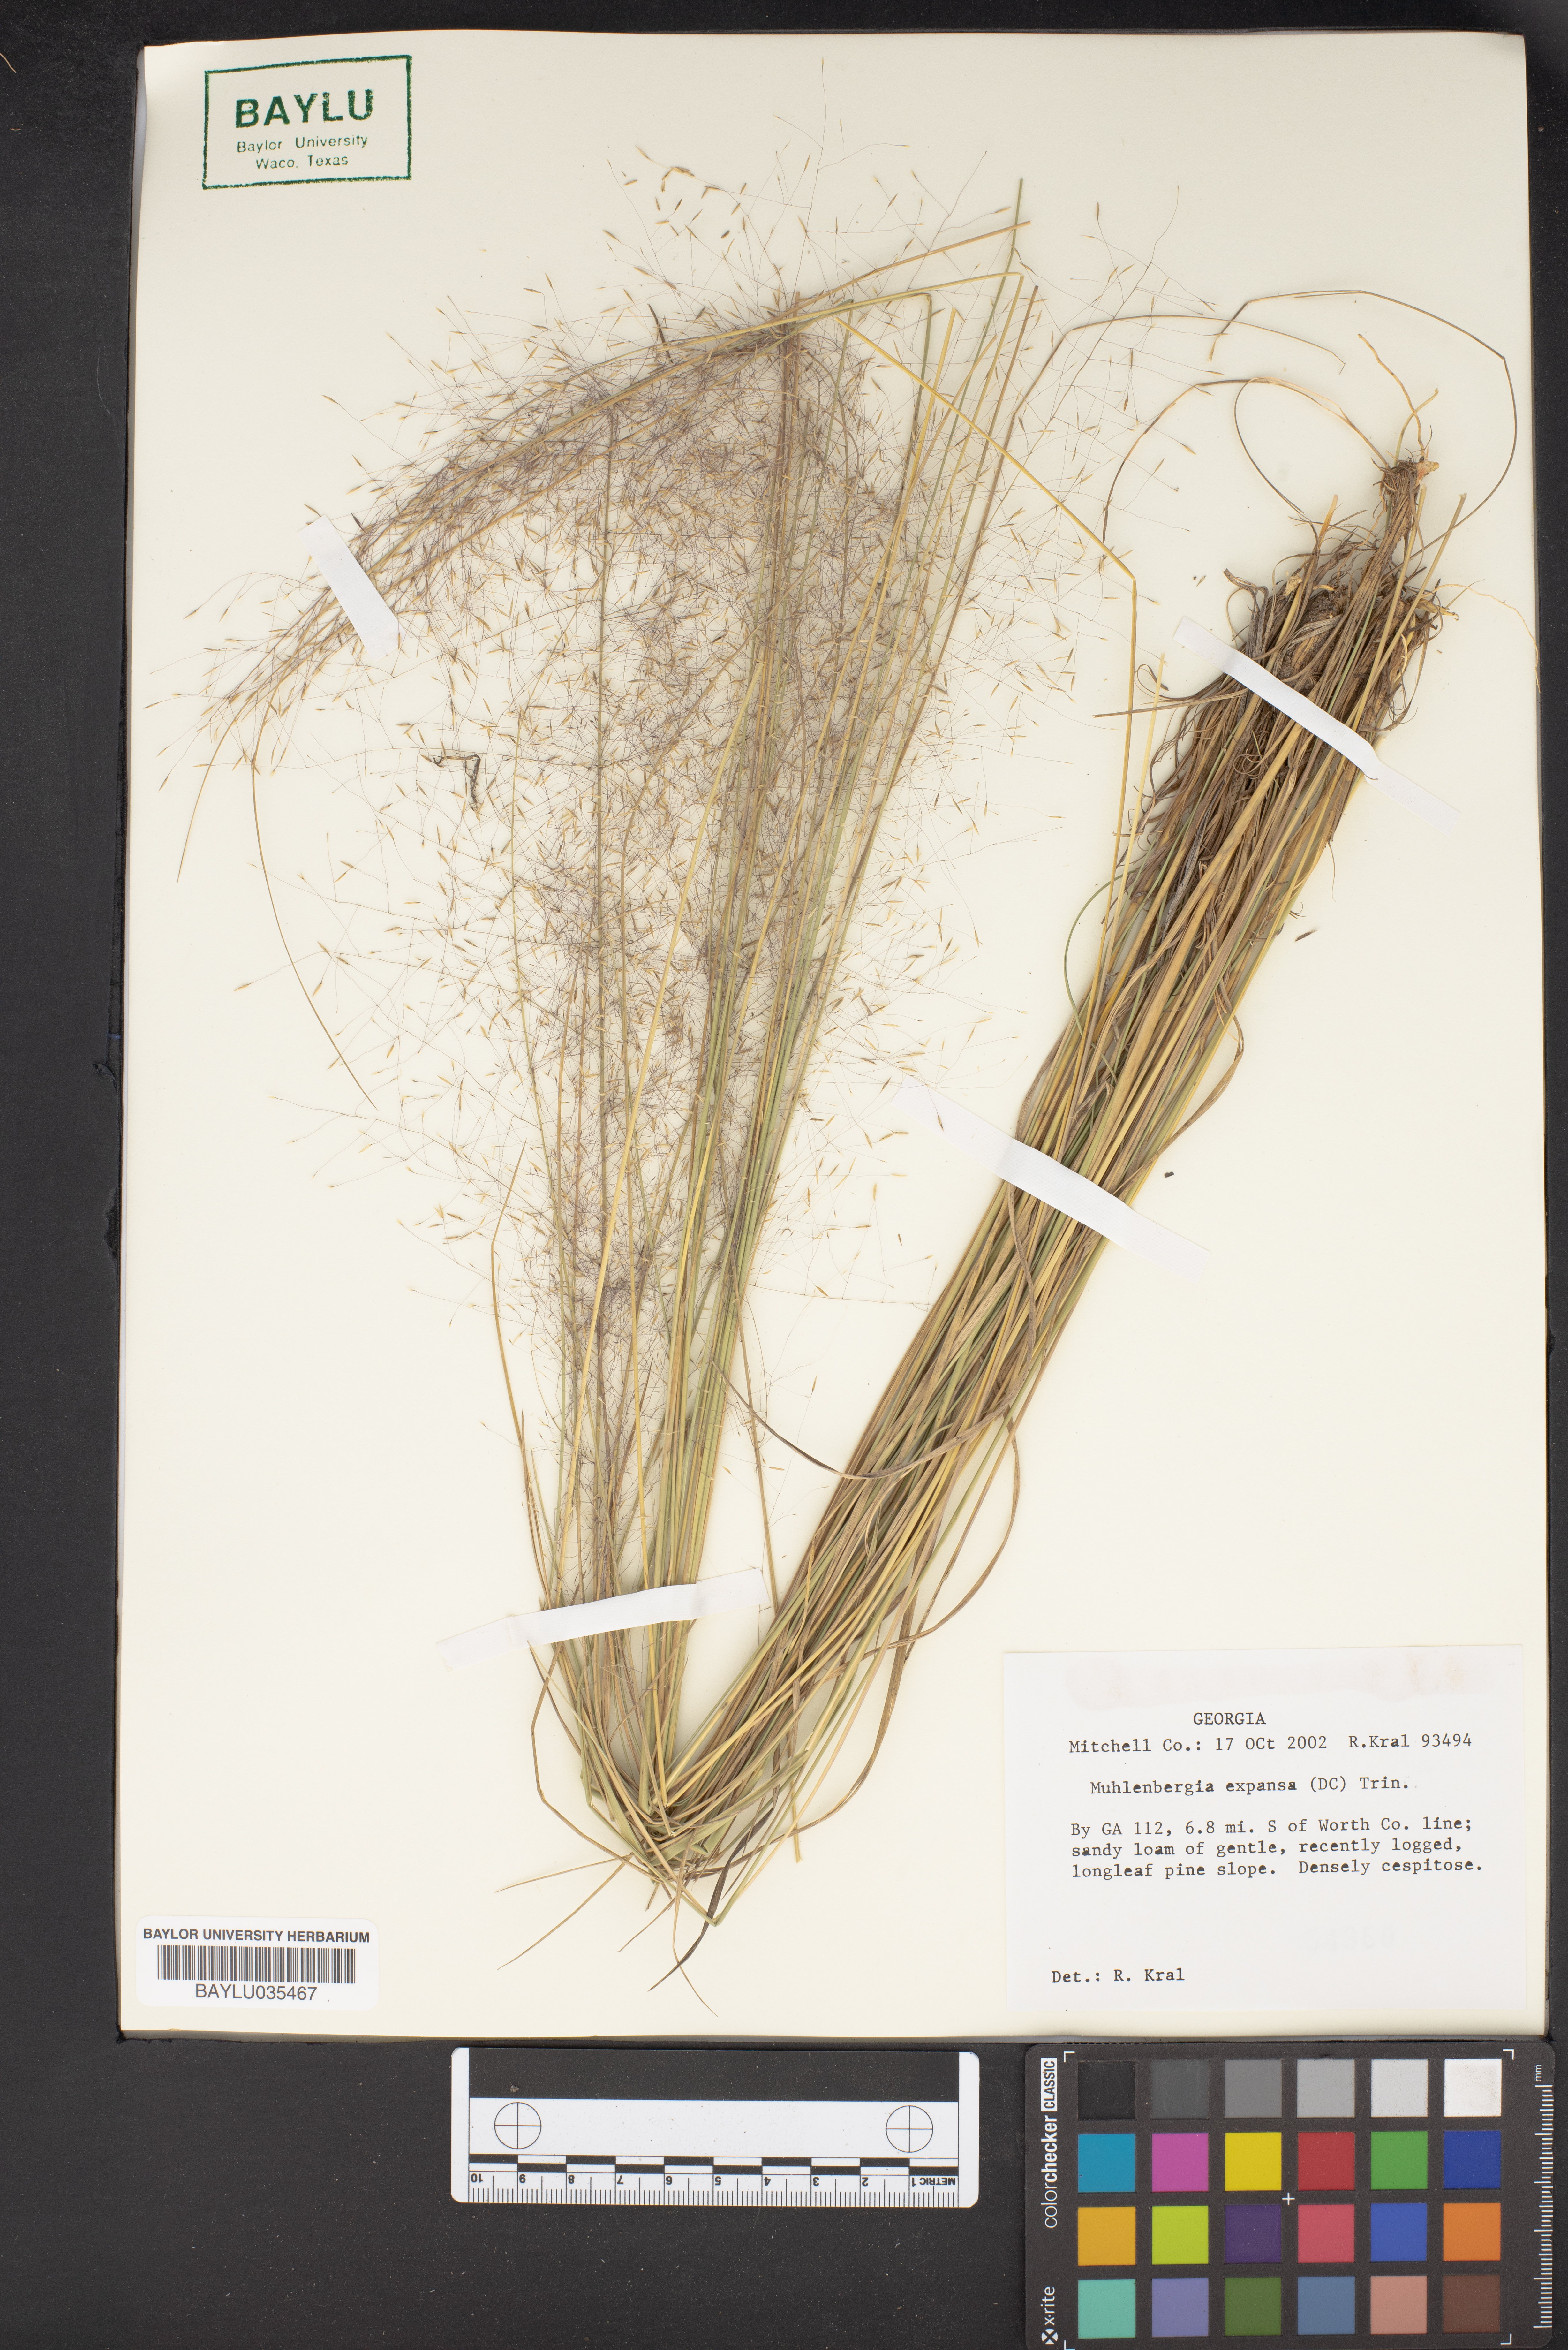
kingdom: Plantae
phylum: Tracheophyta
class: Liliopsida
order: Poales
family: Poaceae
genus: Muhlenbergia
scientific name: Muhlenbergia expansa
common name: Savannah hairgrass
